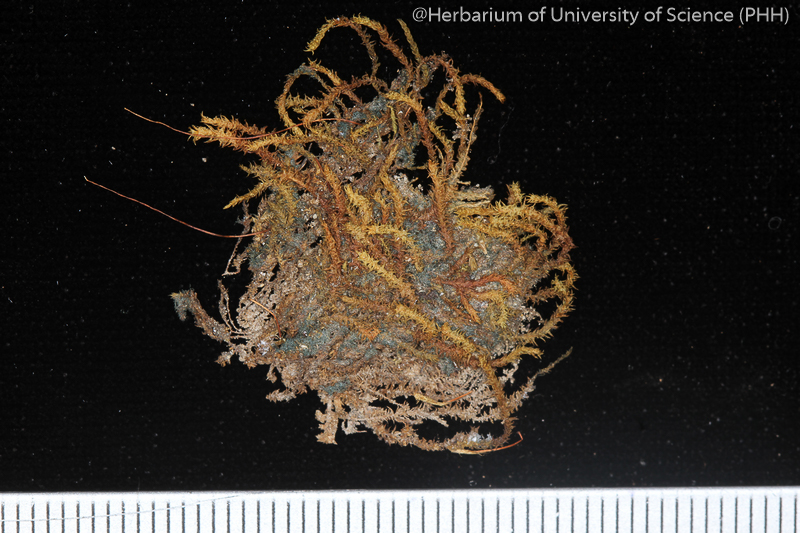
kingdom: Plantae
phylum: Bryophyta
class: Bryopsida
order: Hypnales
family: Leskeaceae
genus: Pseudoleskeopsis
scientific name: Pseudoleskeopsis zippelii
